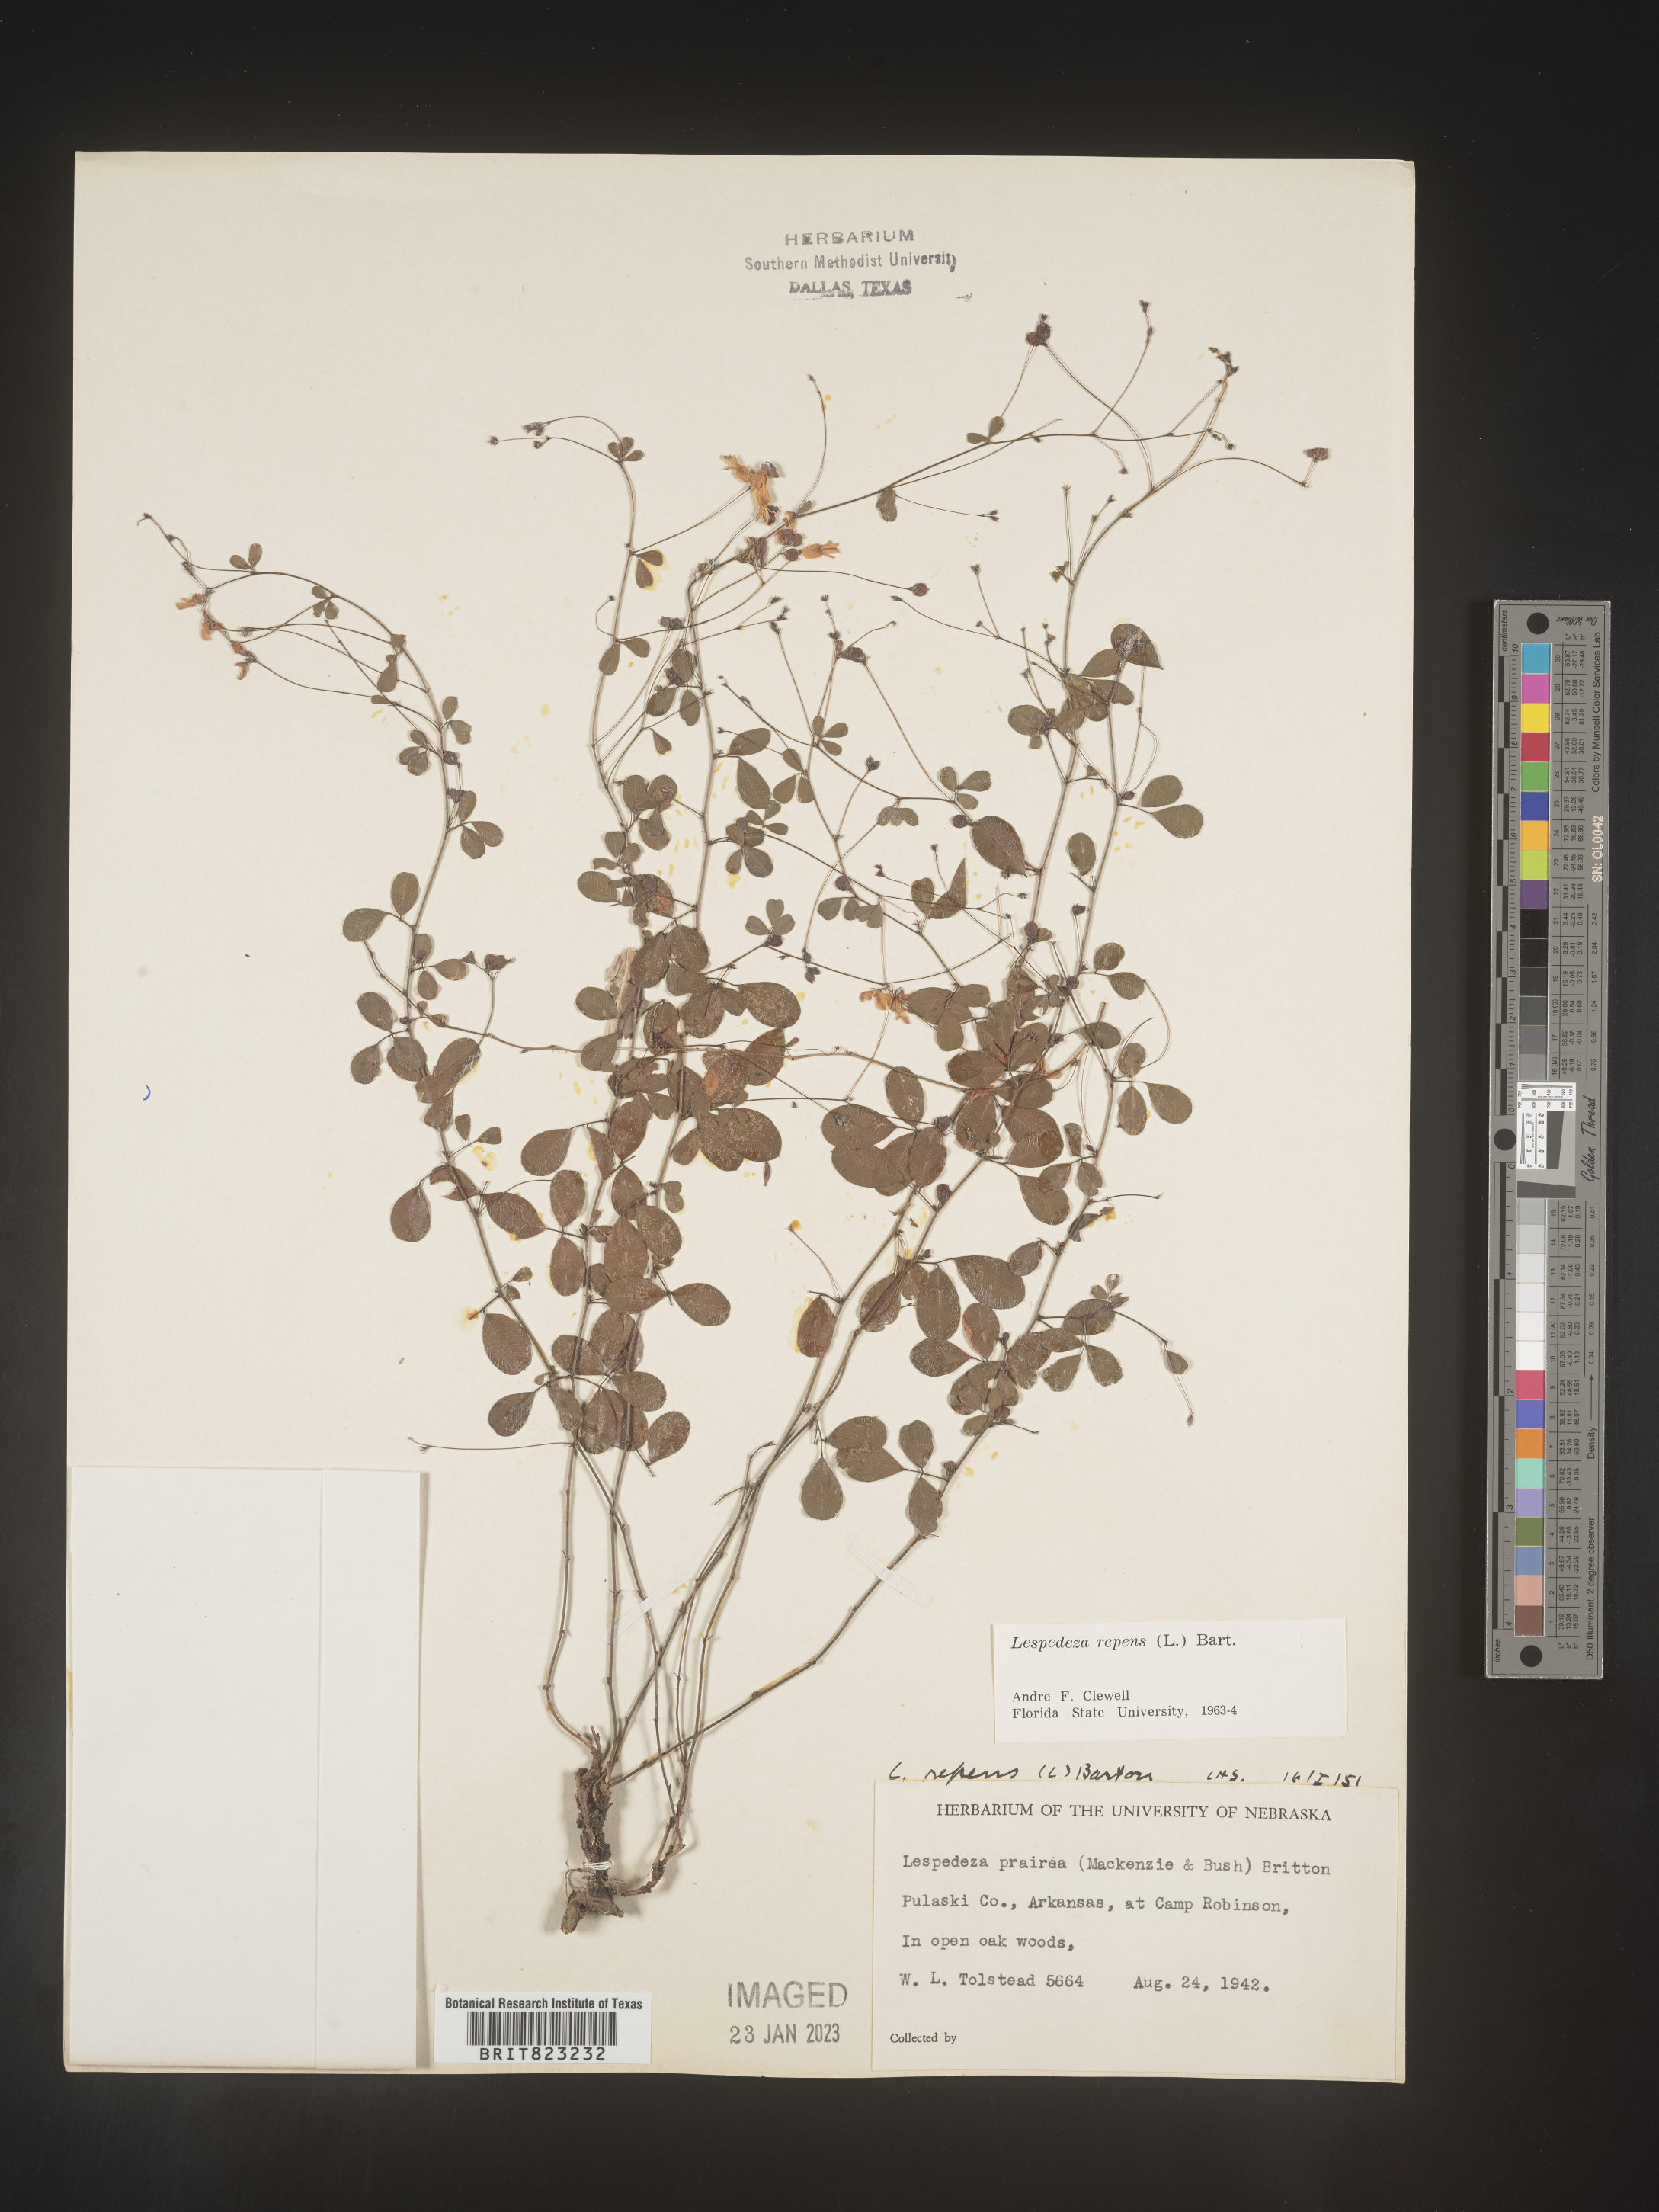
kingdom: Plantae
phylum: Tracheophyta
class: Magnoliopsida
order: Fabales
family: Fabaceae
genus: Lespedeza
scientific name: Lespedeza repens
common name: Creeping bush-clover
